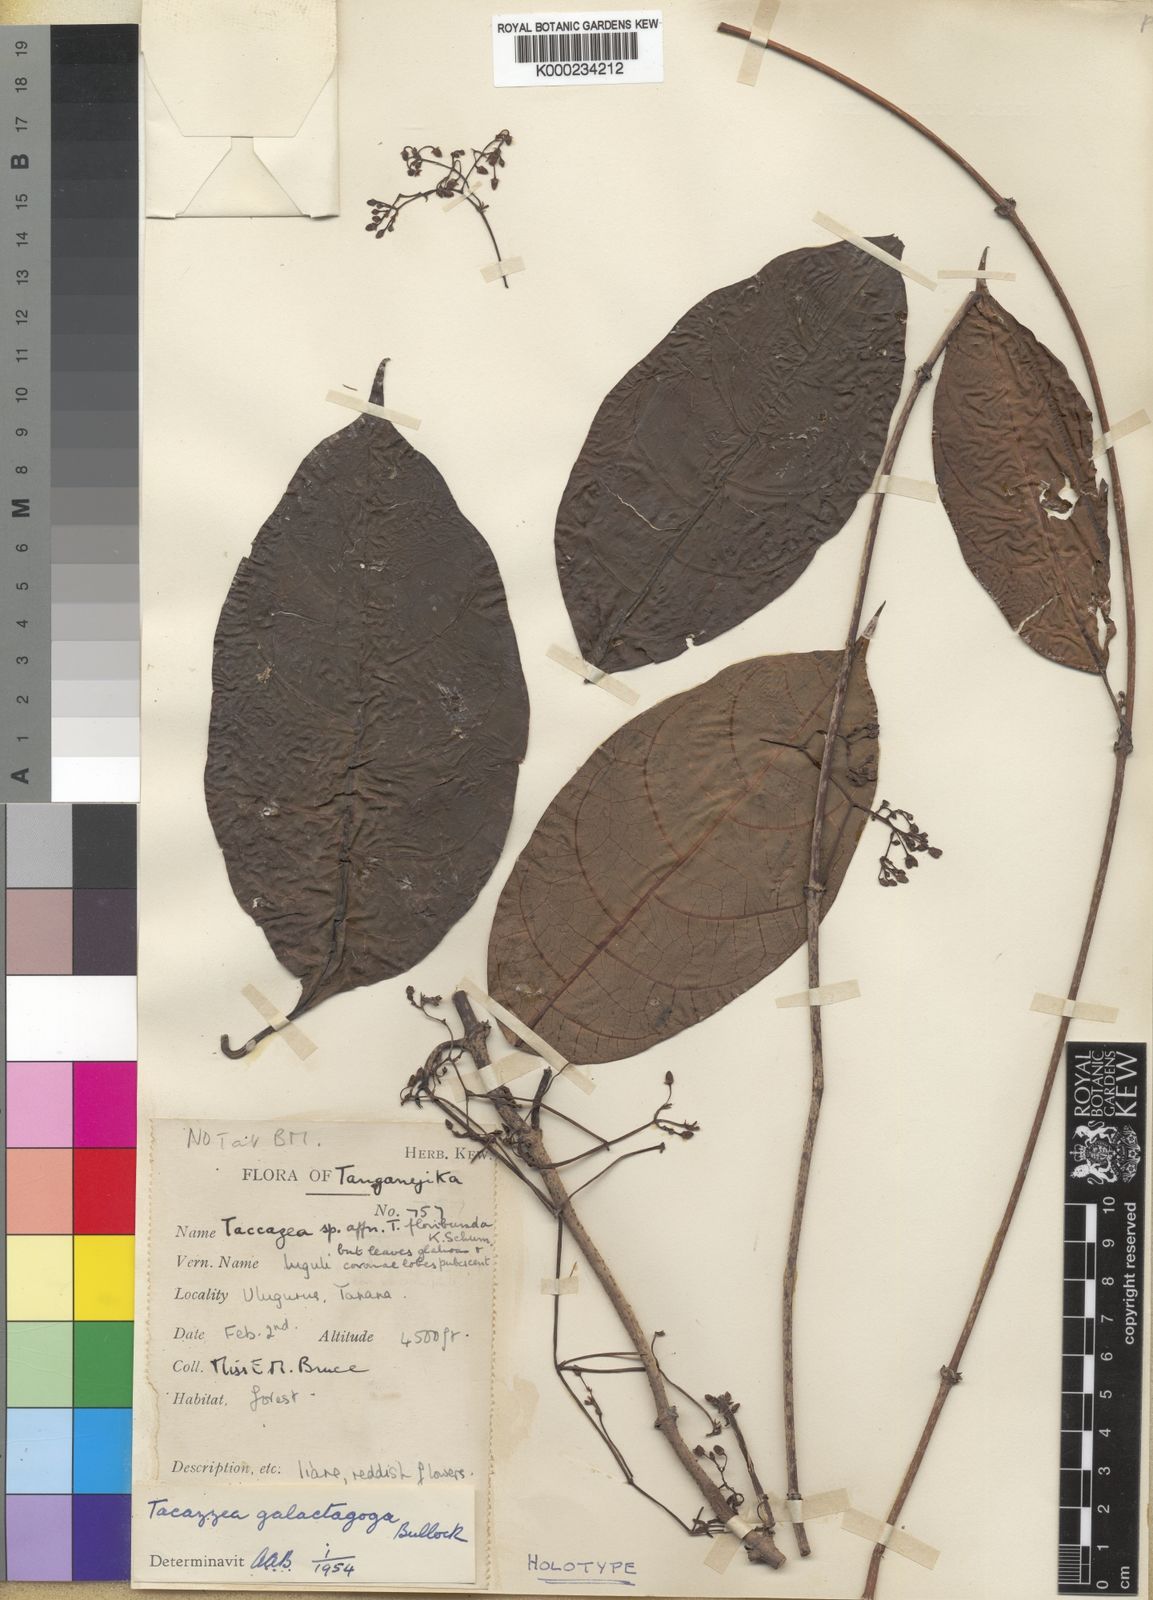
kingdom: Plantae
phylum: Tracheophyta
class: Magnoliopsida
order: Gentianales
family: Apocynaceae
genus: Tacazzea
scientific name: Tacazzea conferta
